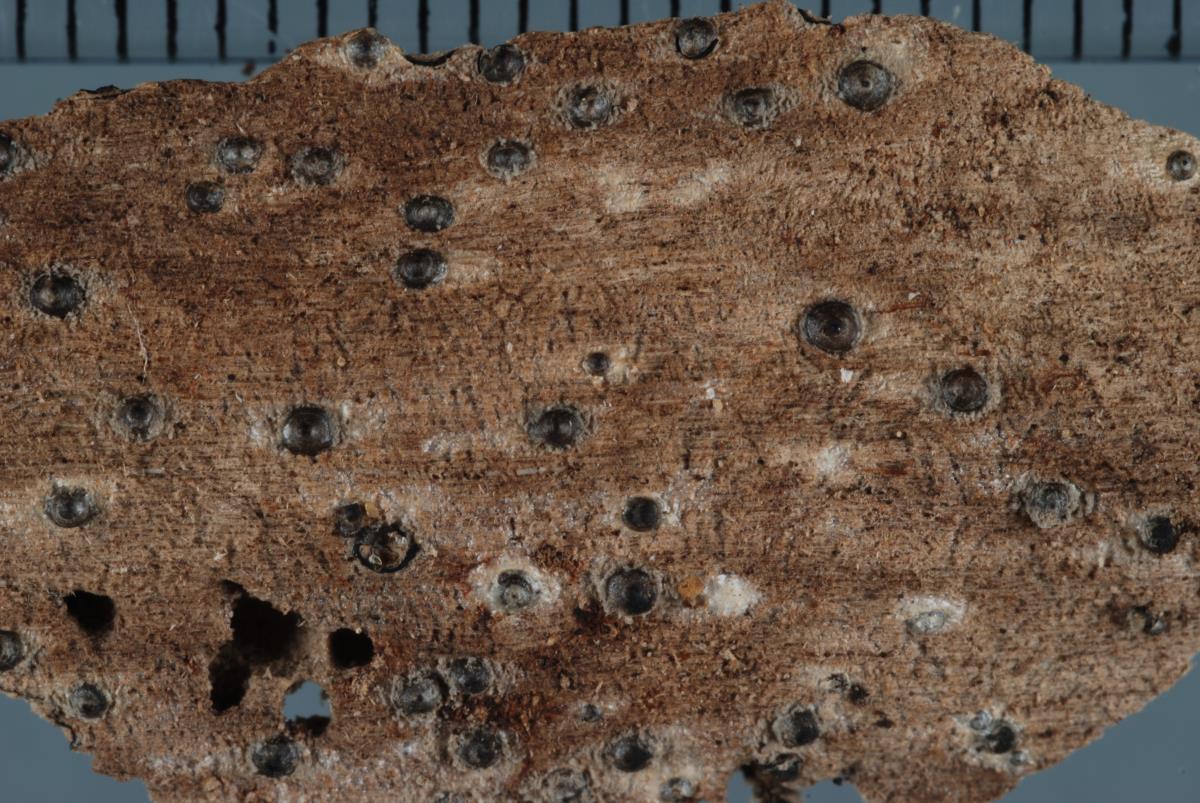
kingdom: Fungi
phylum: Ascomycota
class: Sordariomycetes
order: Xylariales
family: Xylariaceae
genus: Rosellinia
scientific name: Rosellinia
